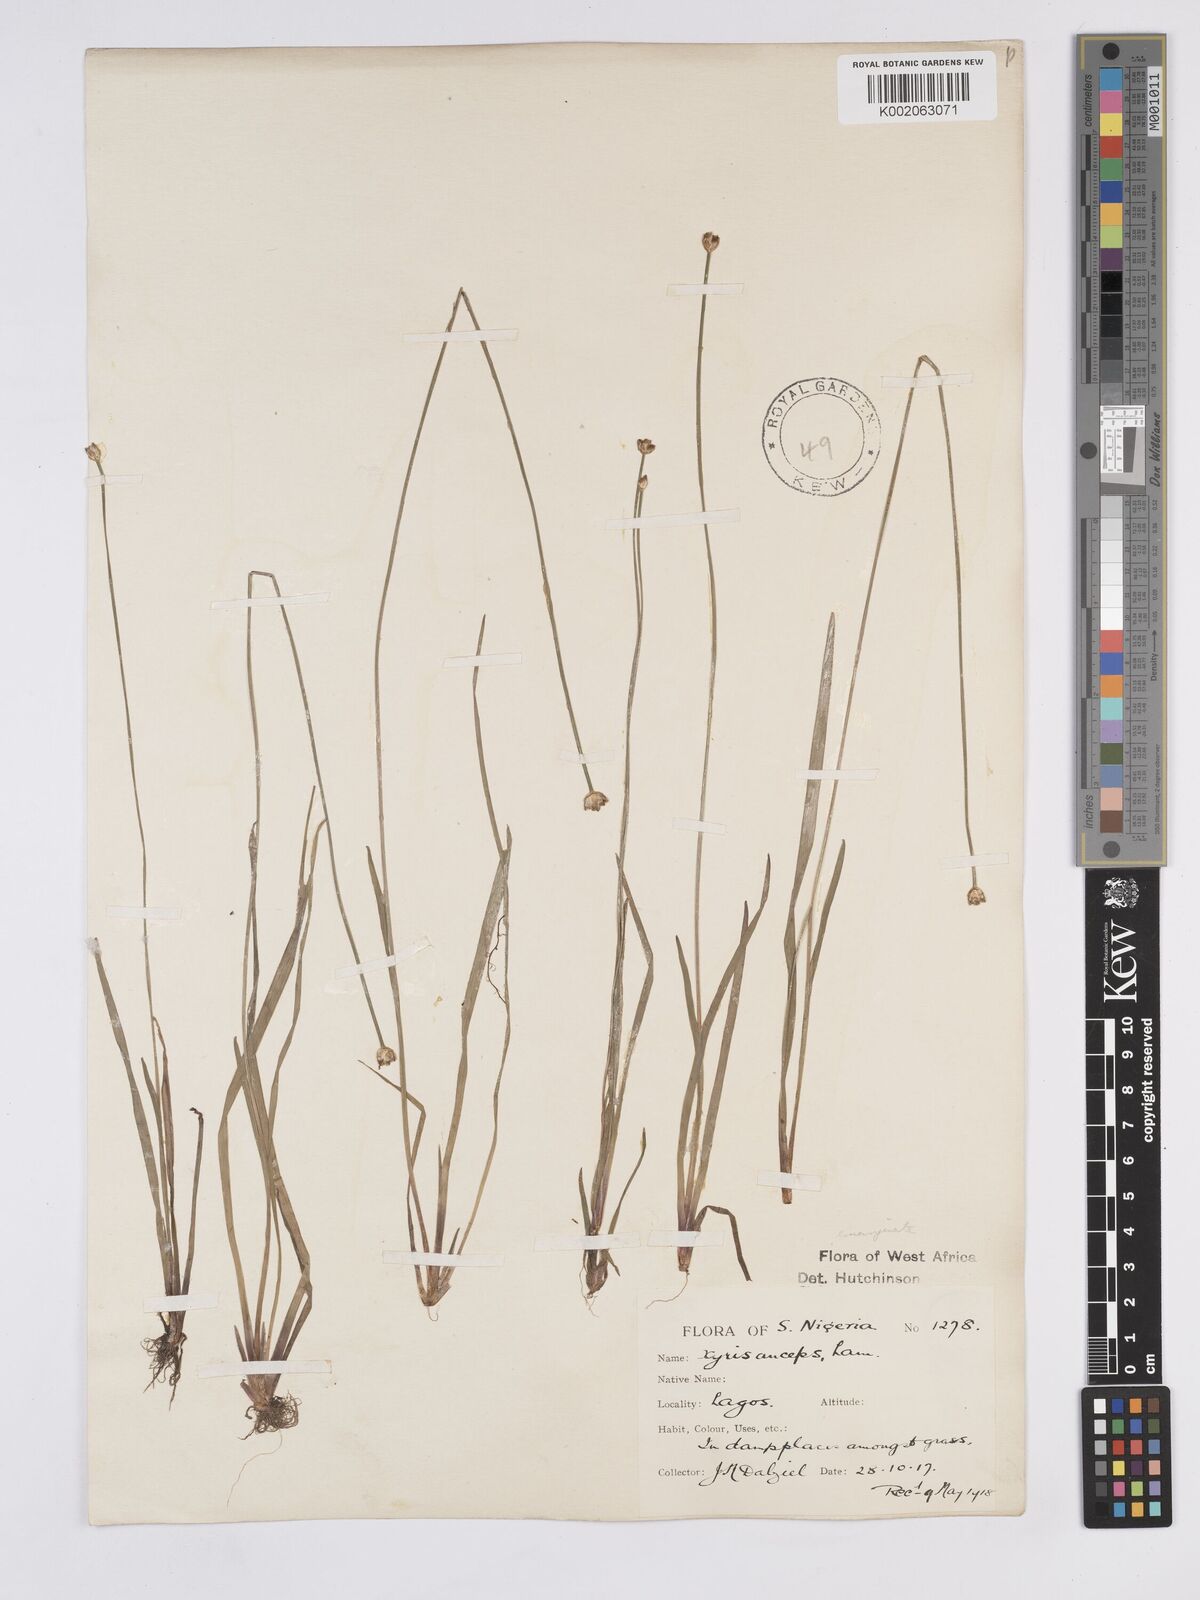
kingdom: Plantae
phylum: Tracheophyta
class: Liliopsida
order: Poales
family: Xyridaceae
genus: Xyris
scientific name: Xyris anceps
